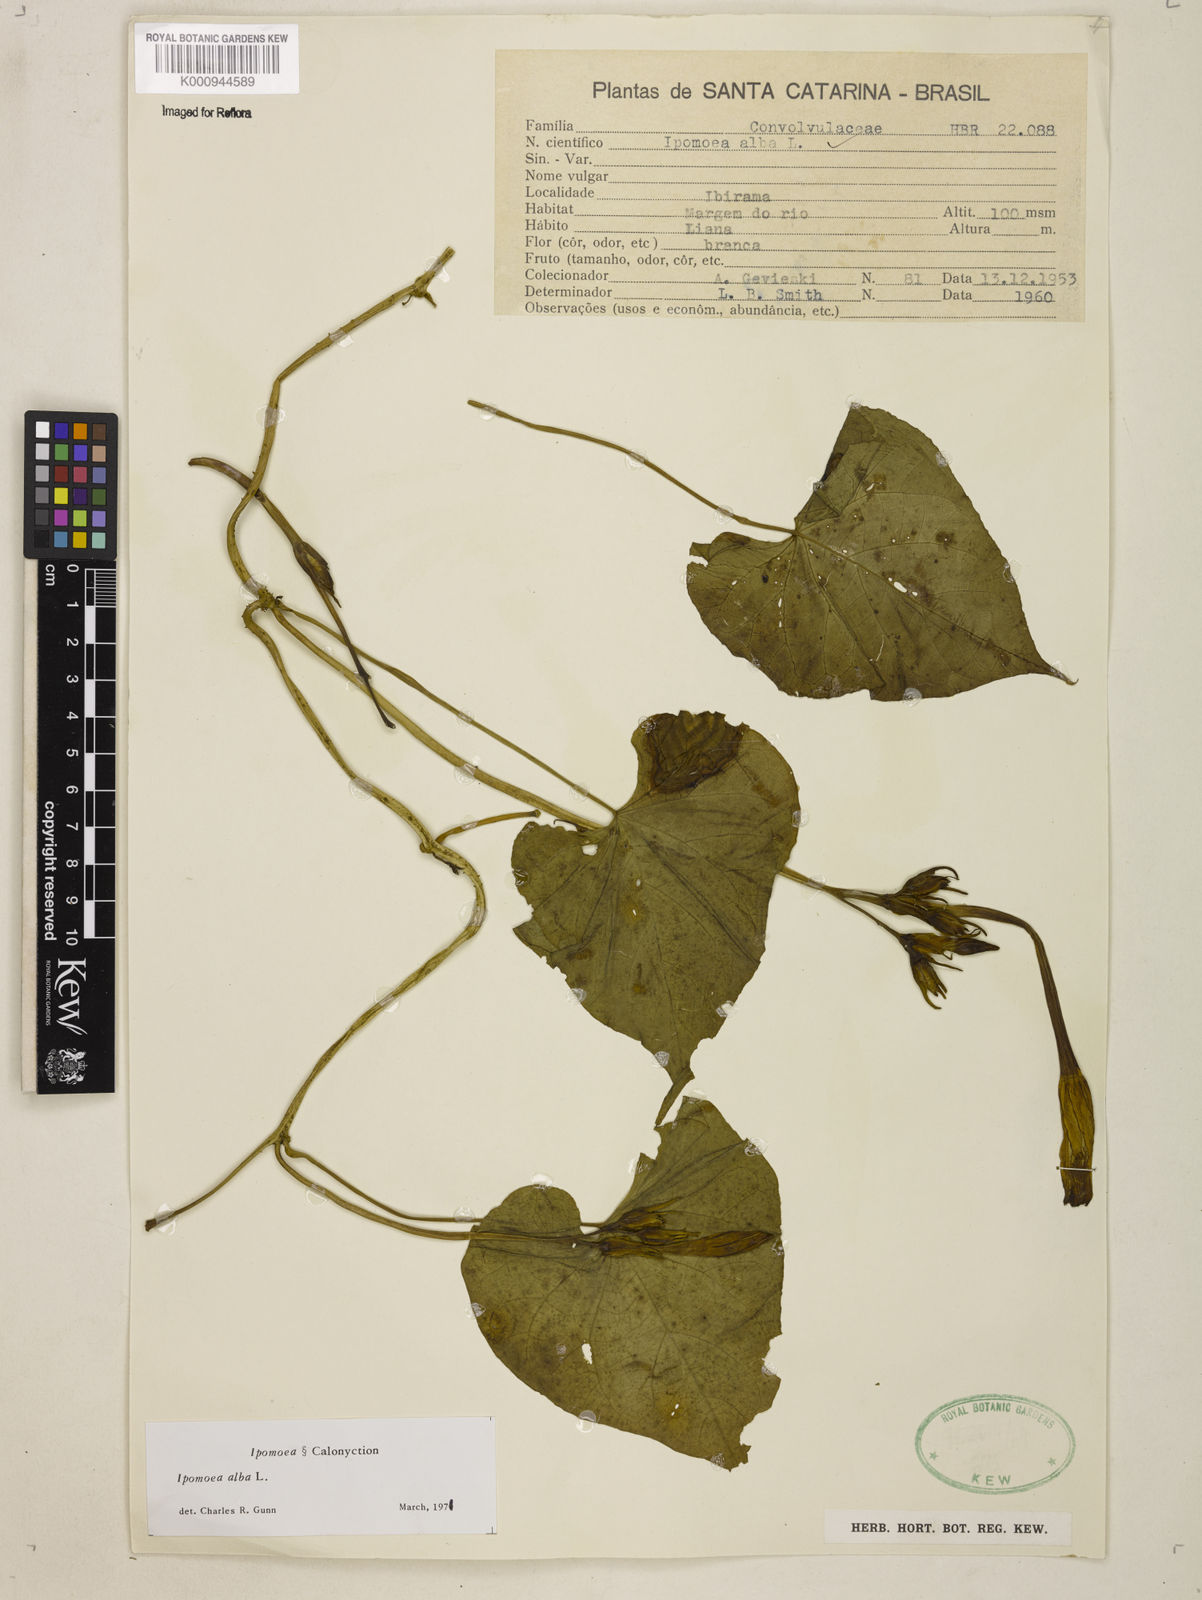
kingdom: Plantae
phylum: Tracheophyta
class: Magnoliopsida
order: Solanales
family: Convolvulaceae
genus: Ipomoea
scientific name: Ipomoea alba
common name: Moonflower
